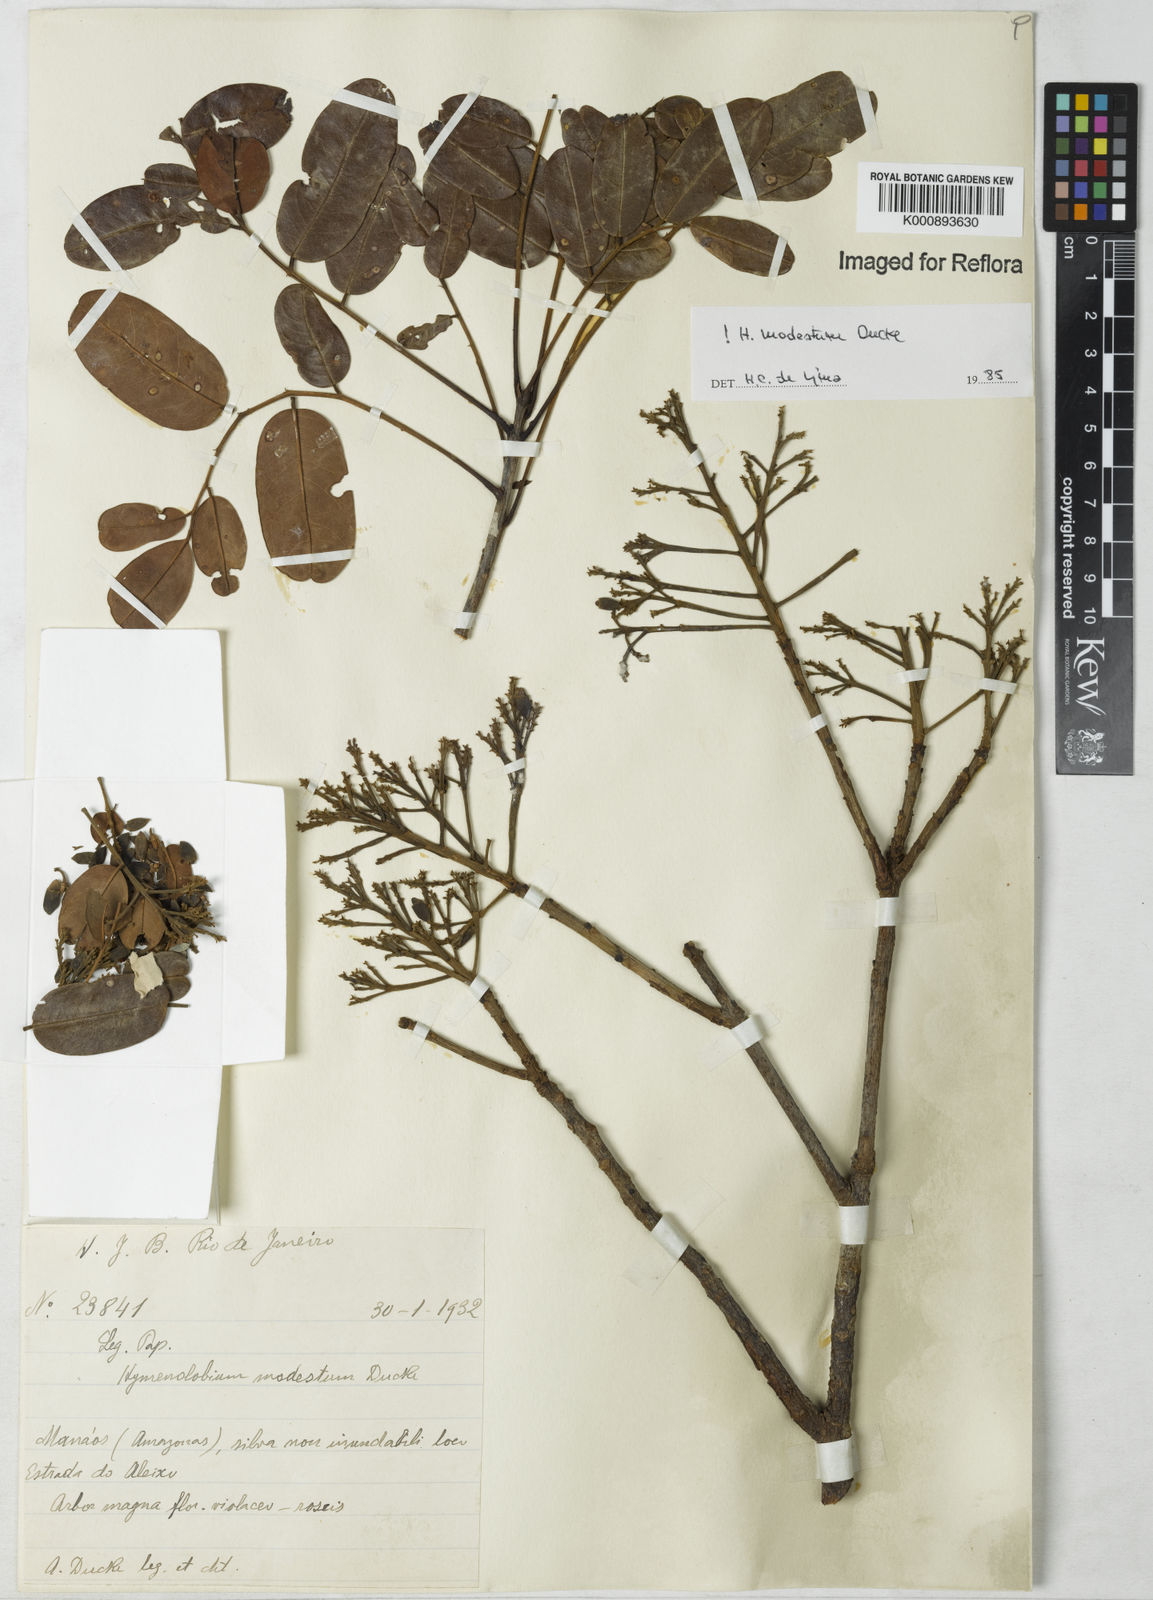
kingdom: Plantae
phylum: Tracheophyta
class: Magnoliopsida
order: Fabales
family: Fabaceae
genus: Hymenolobium
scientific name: Hymenolobium modestum
